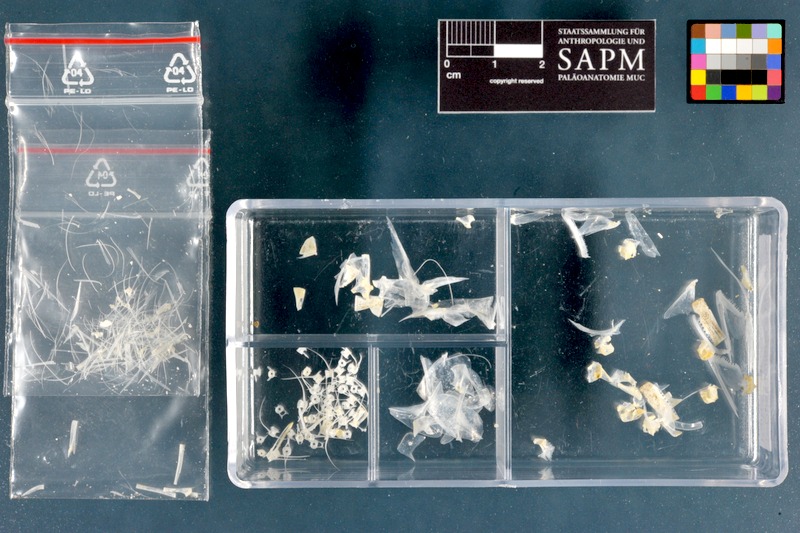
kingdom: Animalia
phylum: Chordata
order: Clupeiformes
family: Dussumieriidae
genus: Dussumieria
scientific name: Dussumieria elopsoides
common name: Slender rainbow sardine
